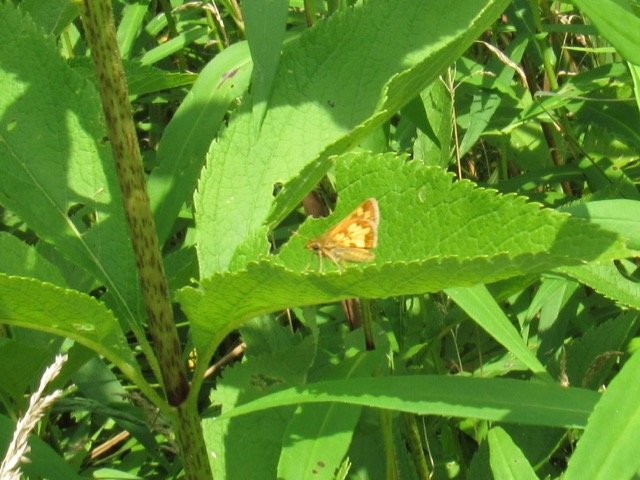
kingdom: Animalia
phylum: Arthropoda
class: Insecta
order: Lepidoptera
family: Hesperiidae
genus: Polites
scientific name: Polites coras
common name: Peck's Skipper
